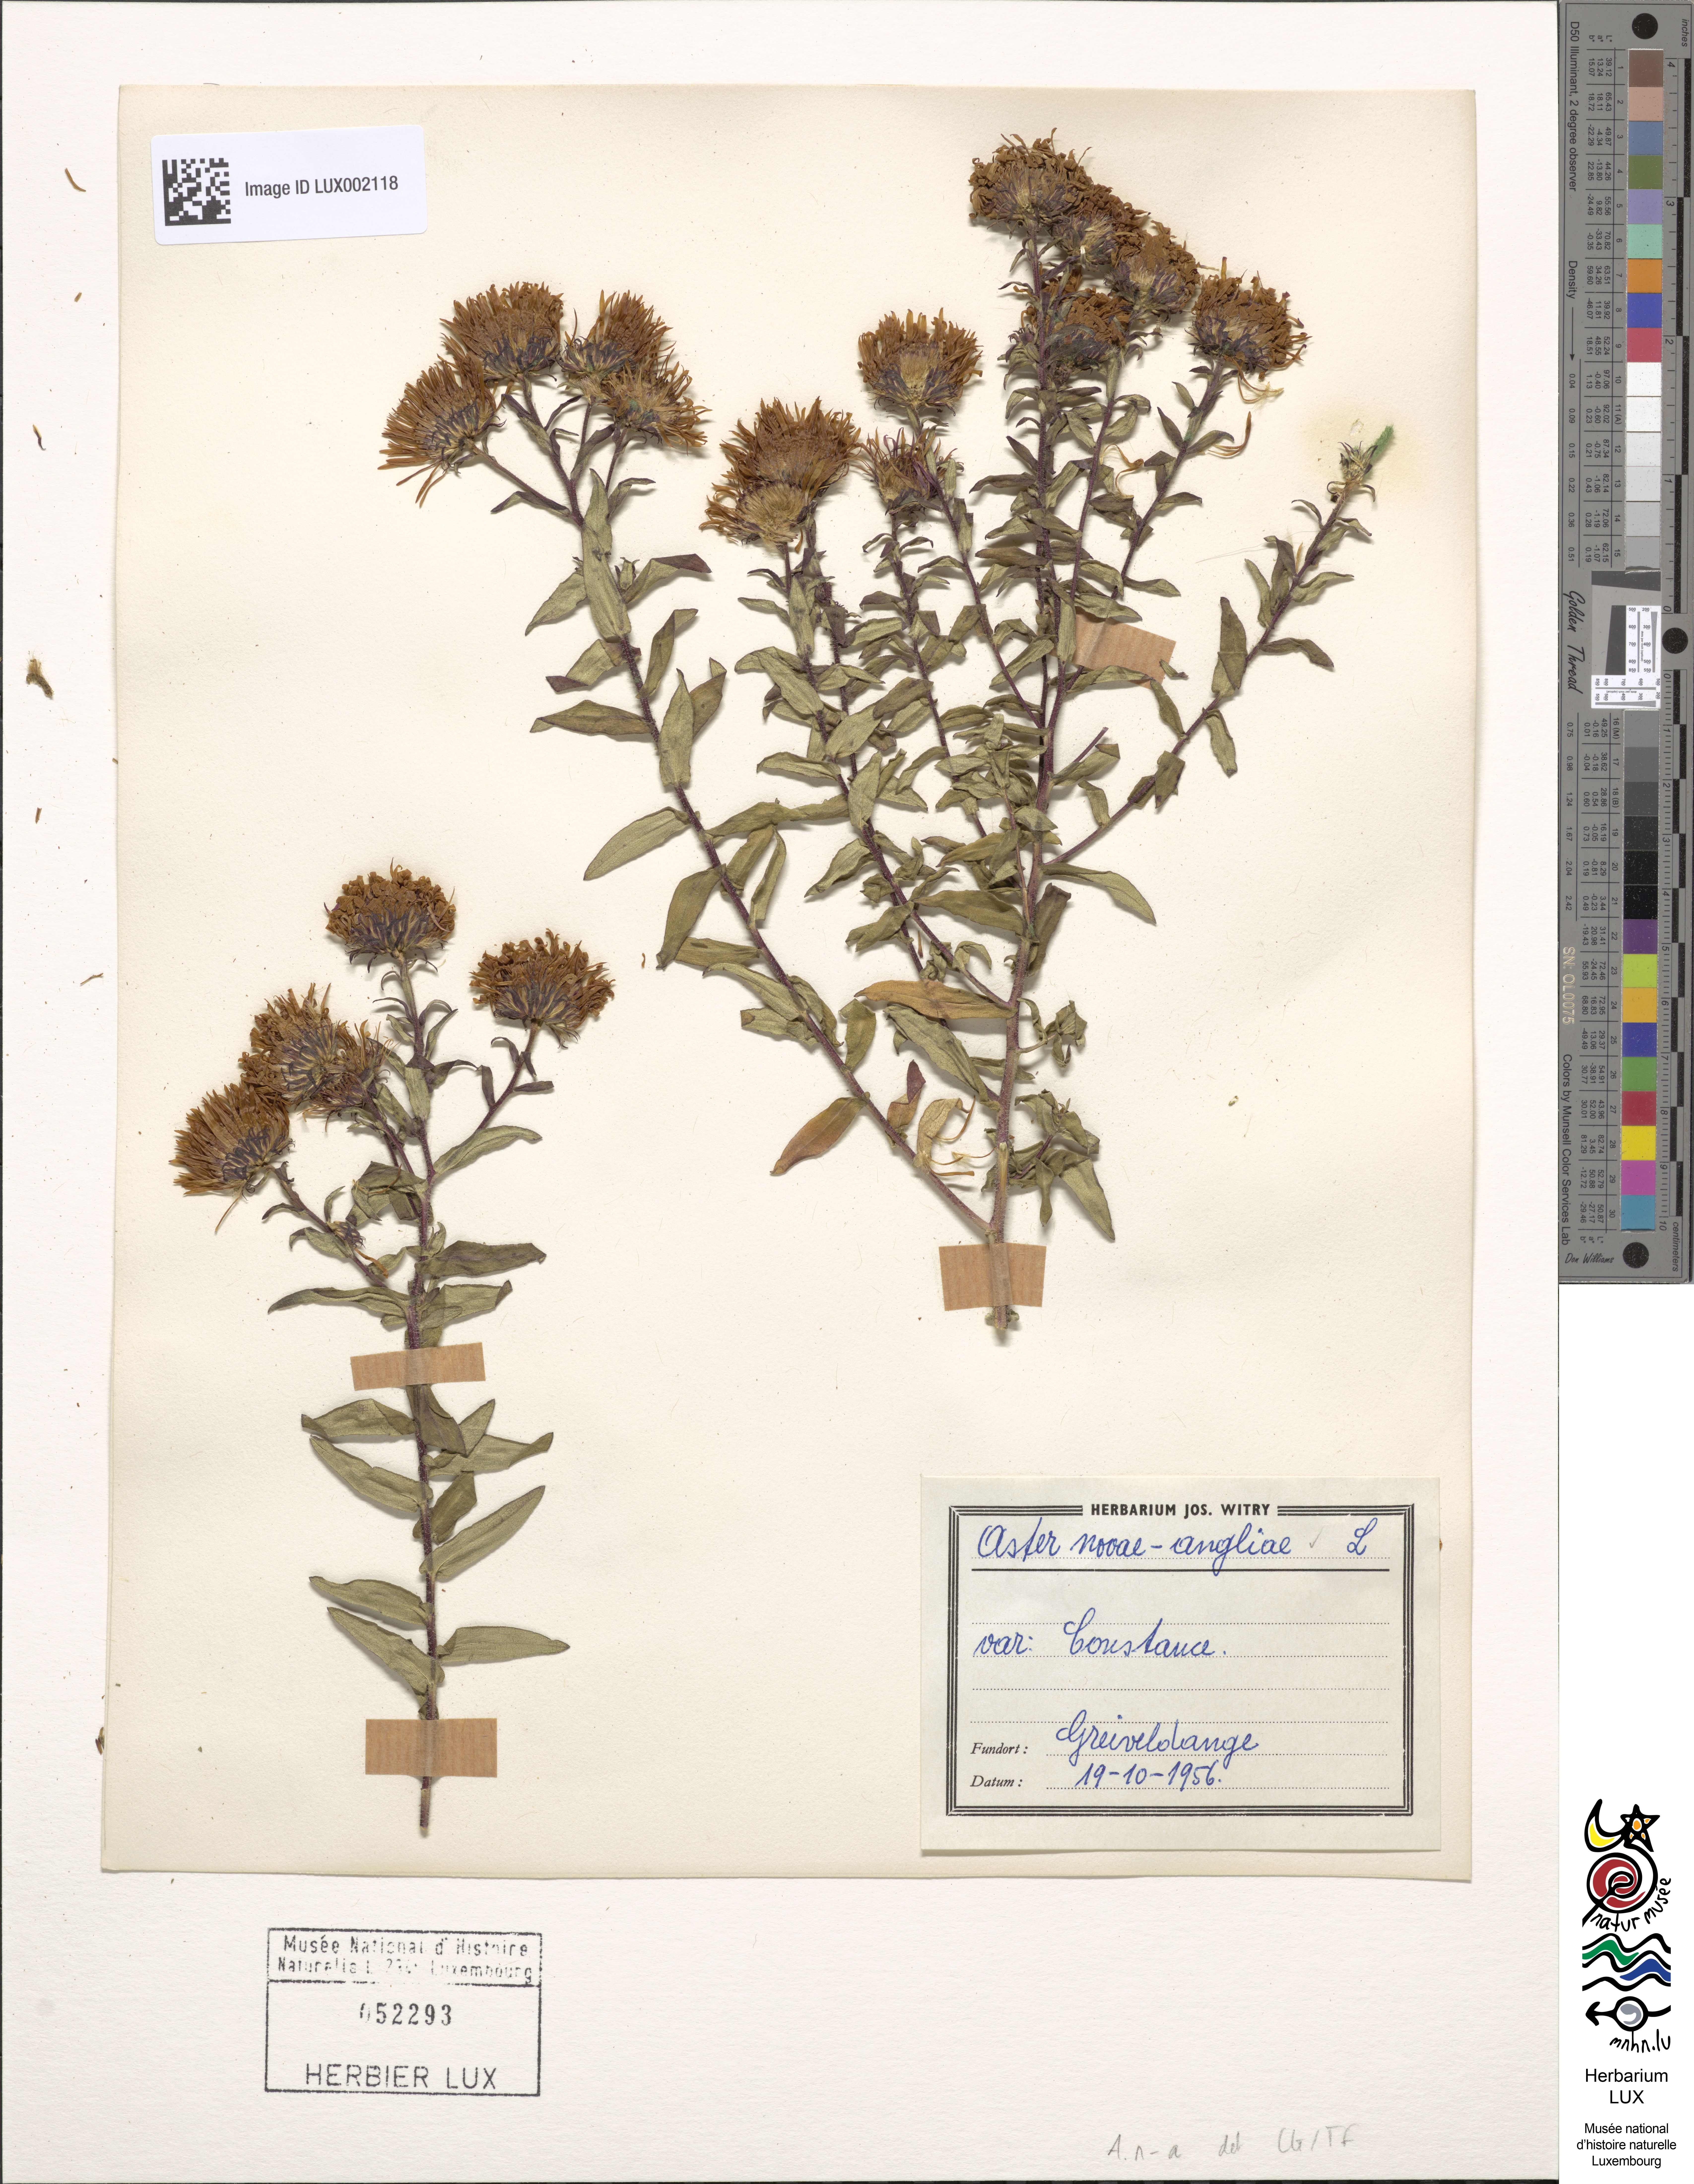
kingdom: Plantae
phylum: Tracheophyta
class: Magnoliopsida
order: Asterales
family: Asteraceae
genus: Symphyotrichum
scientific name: Symphyotrichum novae-angliae
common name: Michaelmas daisy
